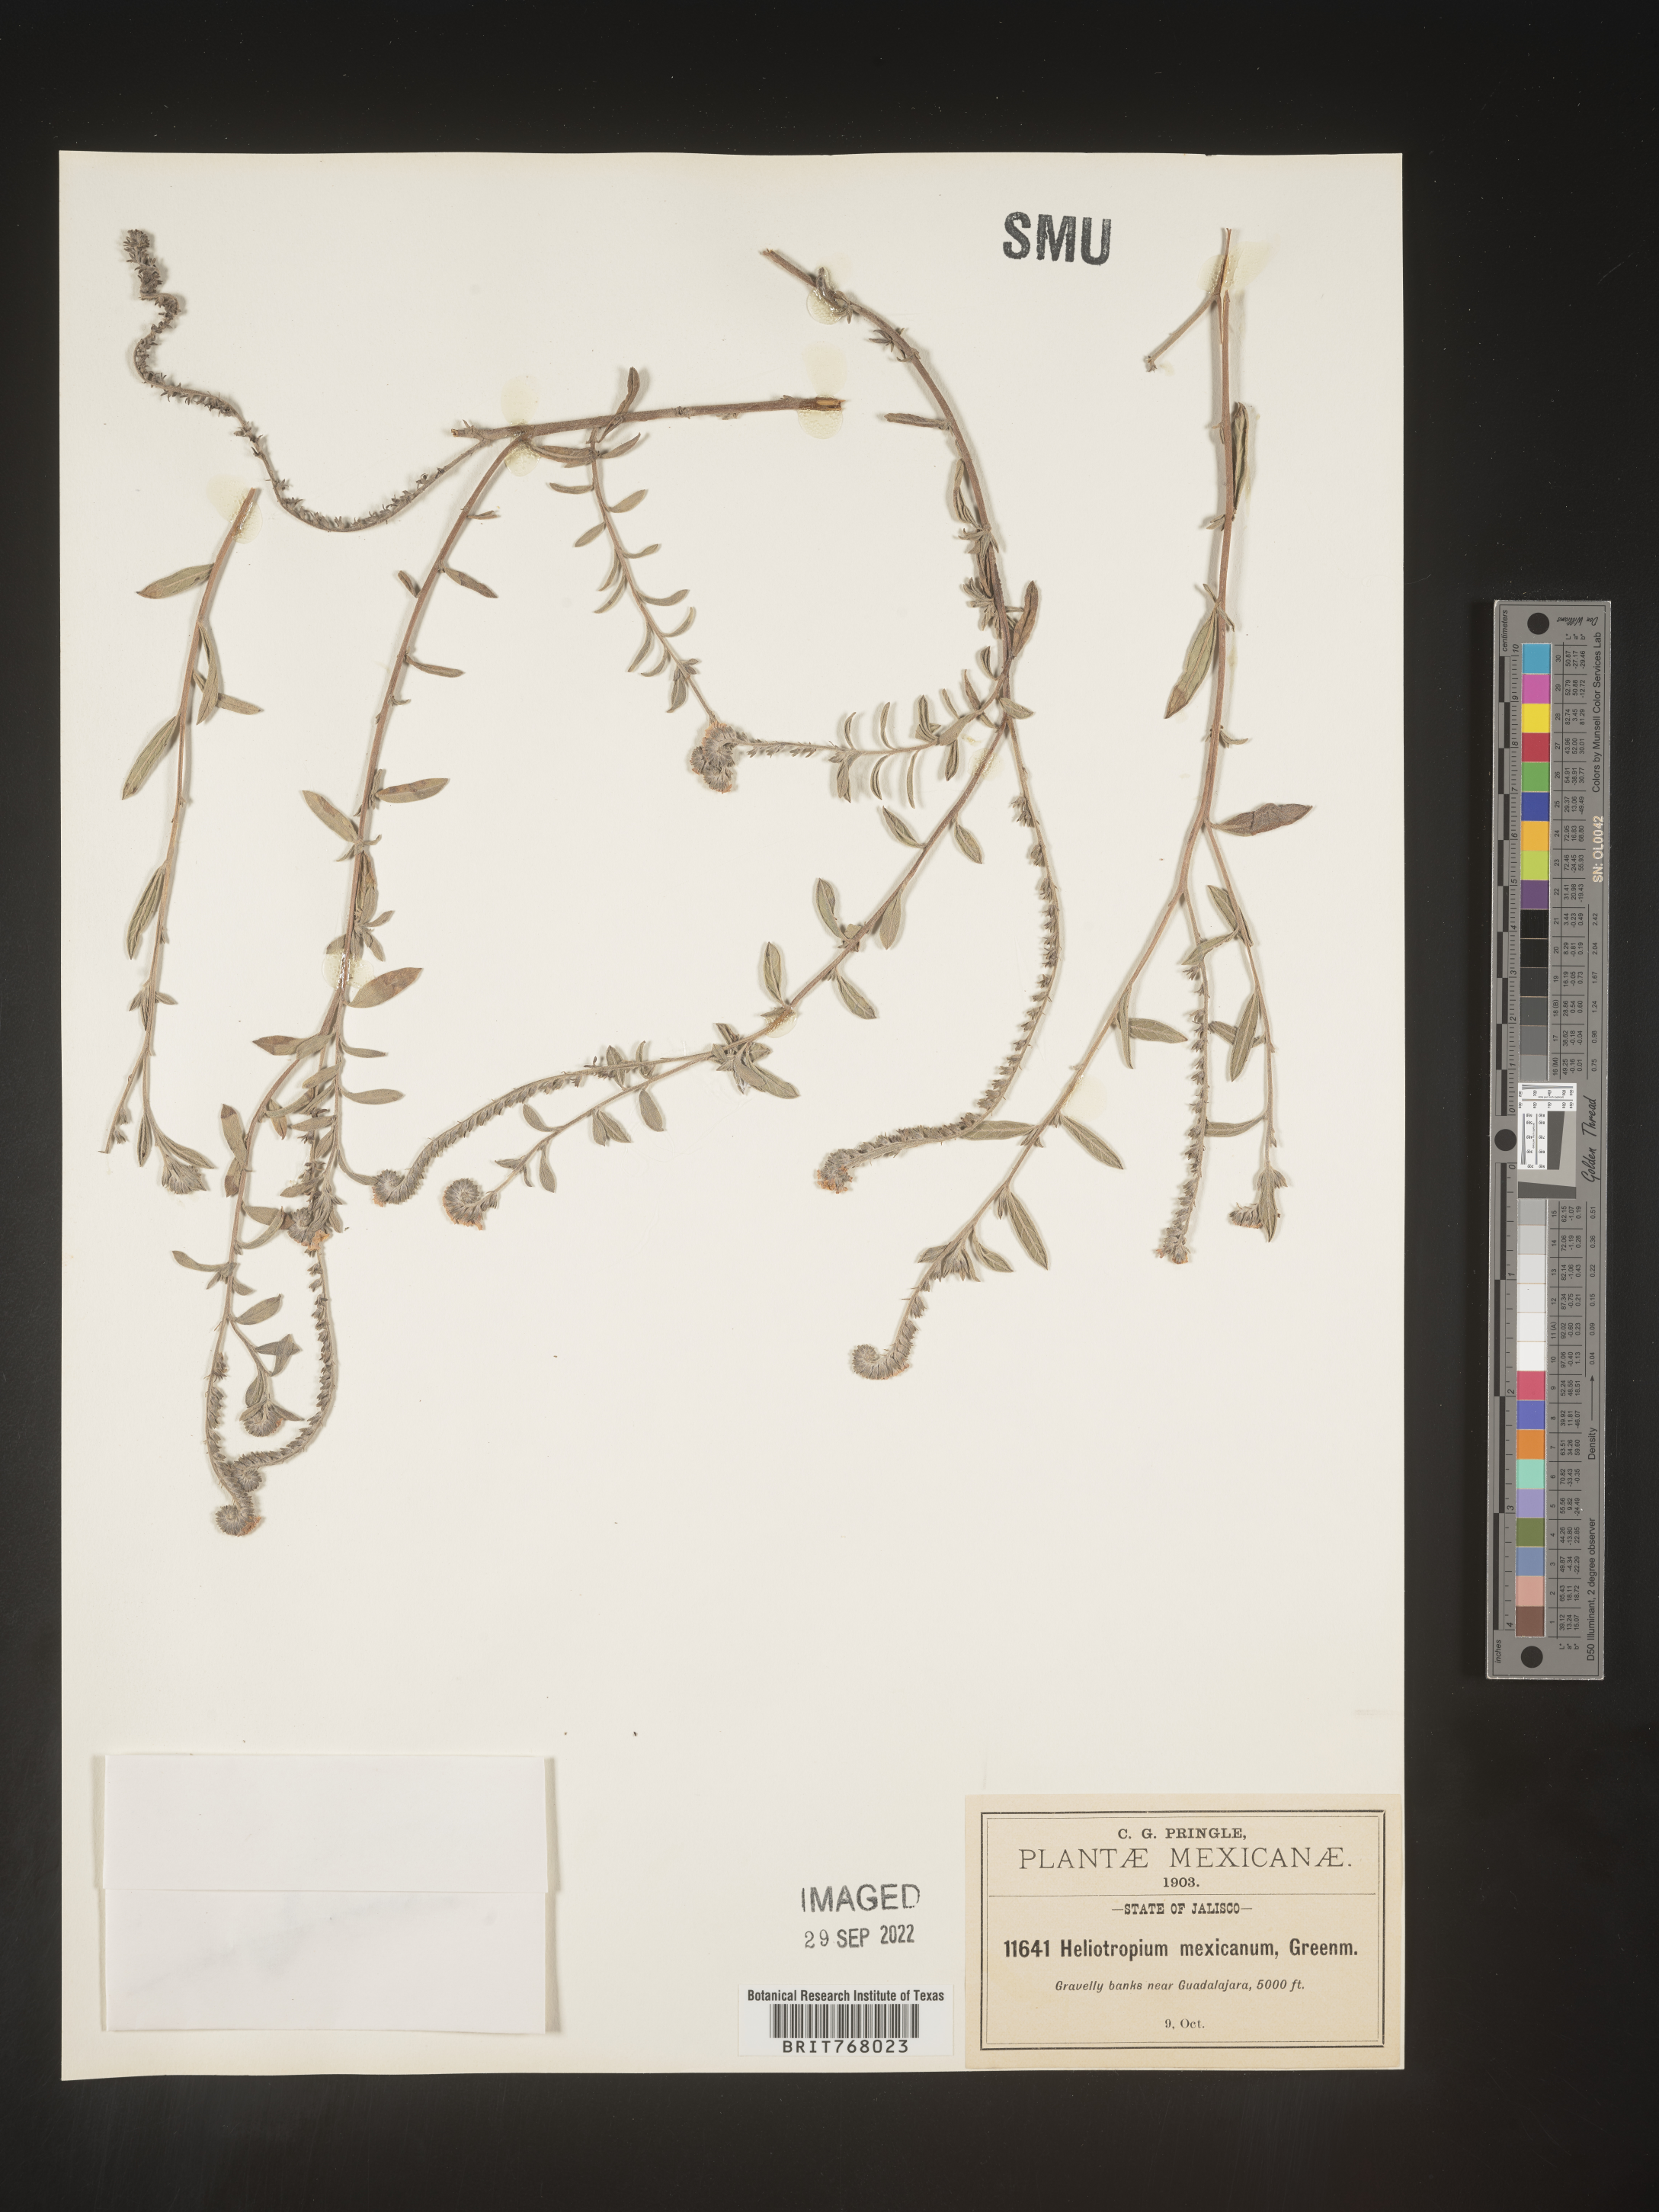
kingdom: Plantae
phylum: Tracheophyta
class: Magnoliopsida
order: Boraginales
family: Heliotropiaceae
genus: Heliotropium
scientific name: Heliotropium
